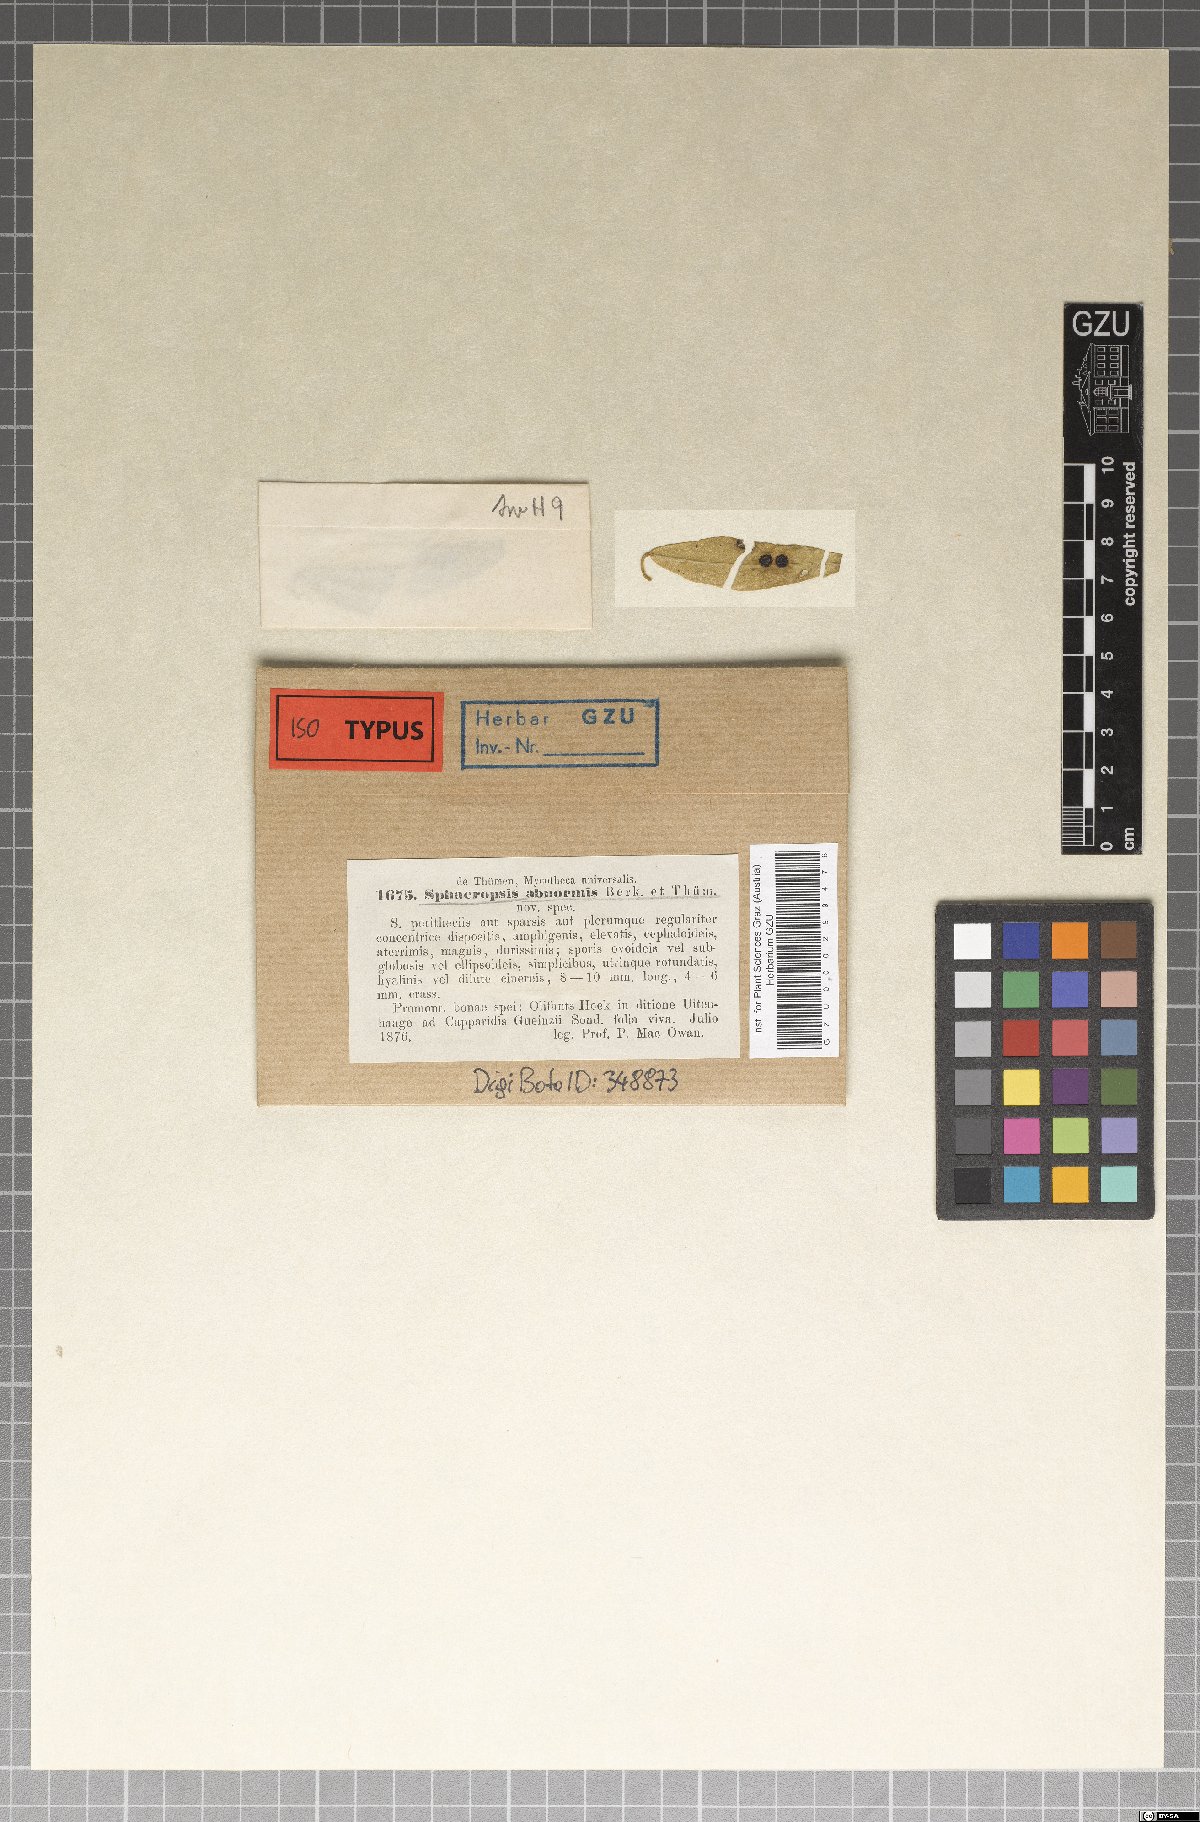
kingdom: Animalia
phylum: Arthropoda
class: Branchiopoda
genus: Sphaeropsis
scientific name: Sphaeropsis
